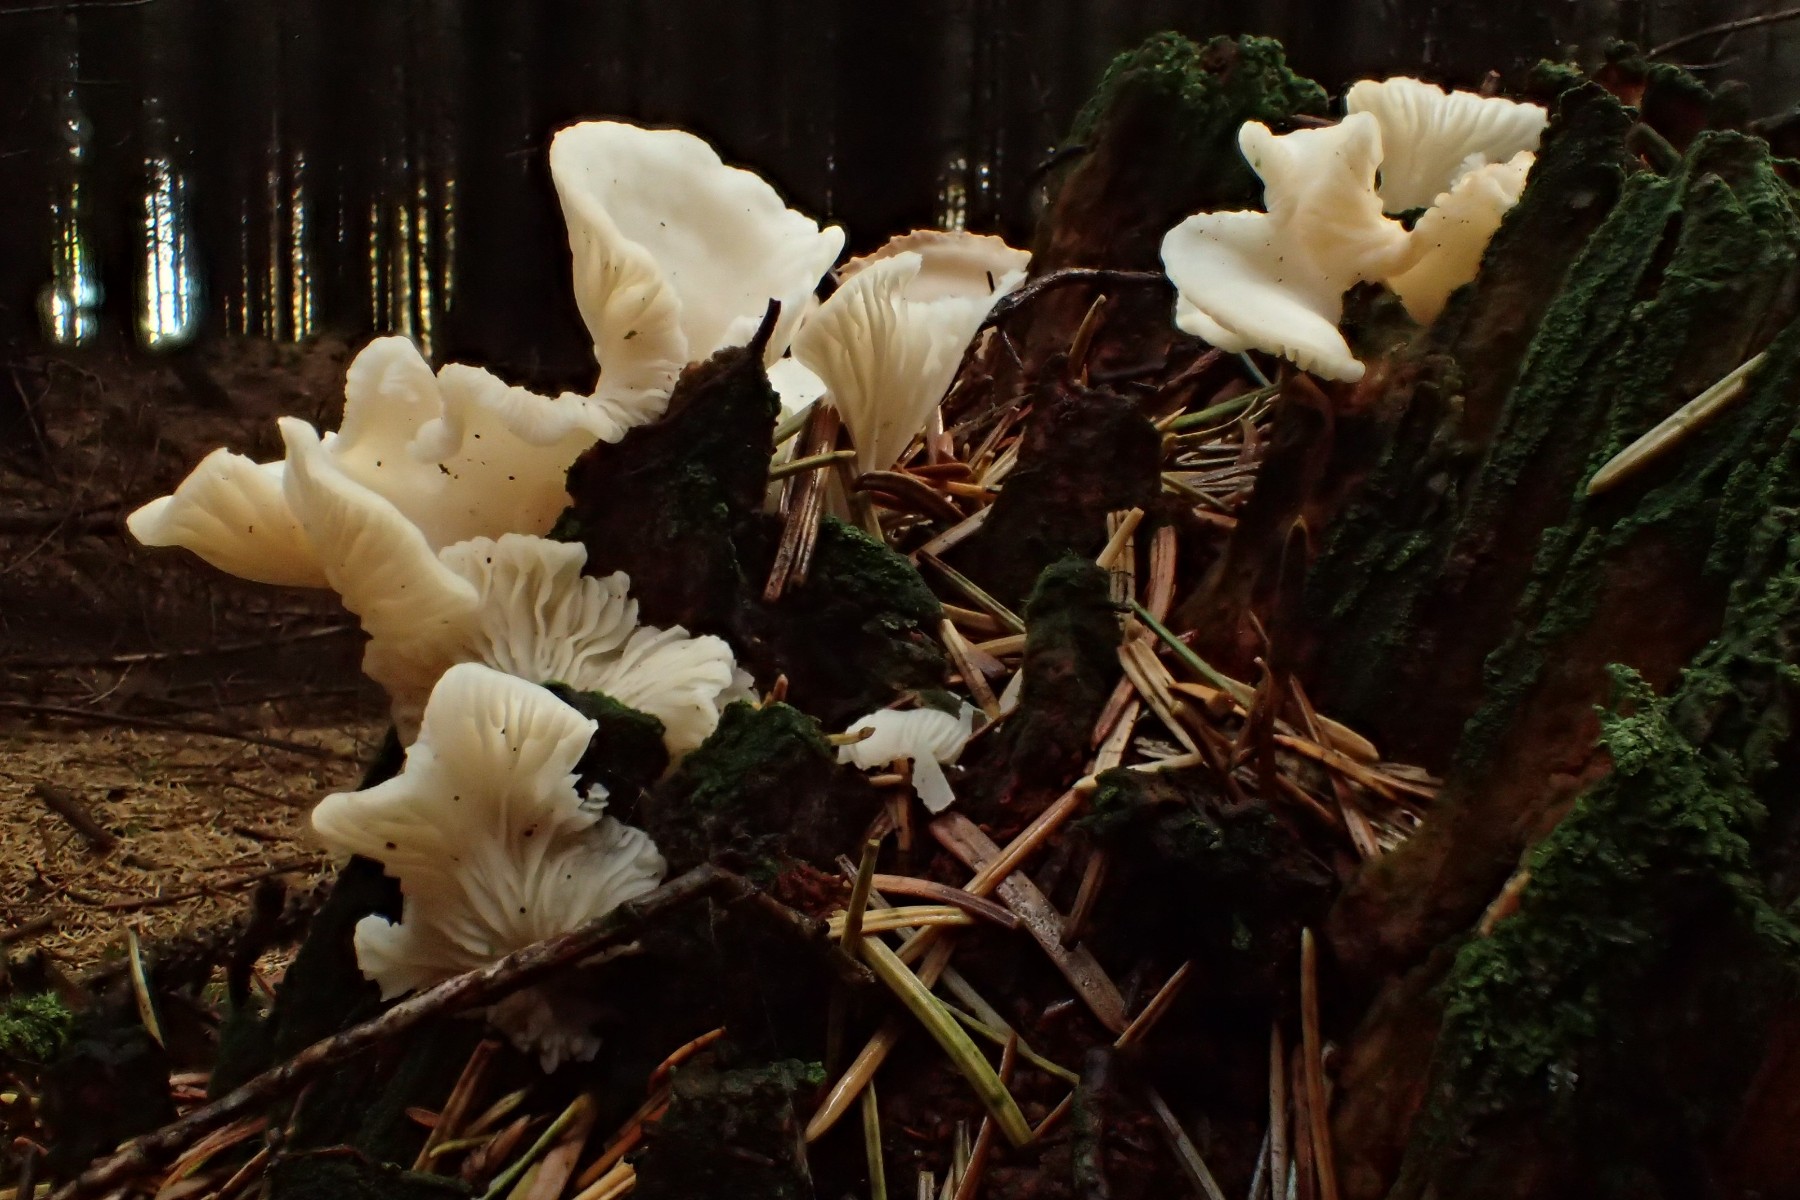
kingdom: Fungi
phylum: Basidiomycota
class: Agaricomycetes
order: Agaricales
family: Marasmiaceae
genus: Pleurocybella
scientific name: Pleurocybella porrigens
